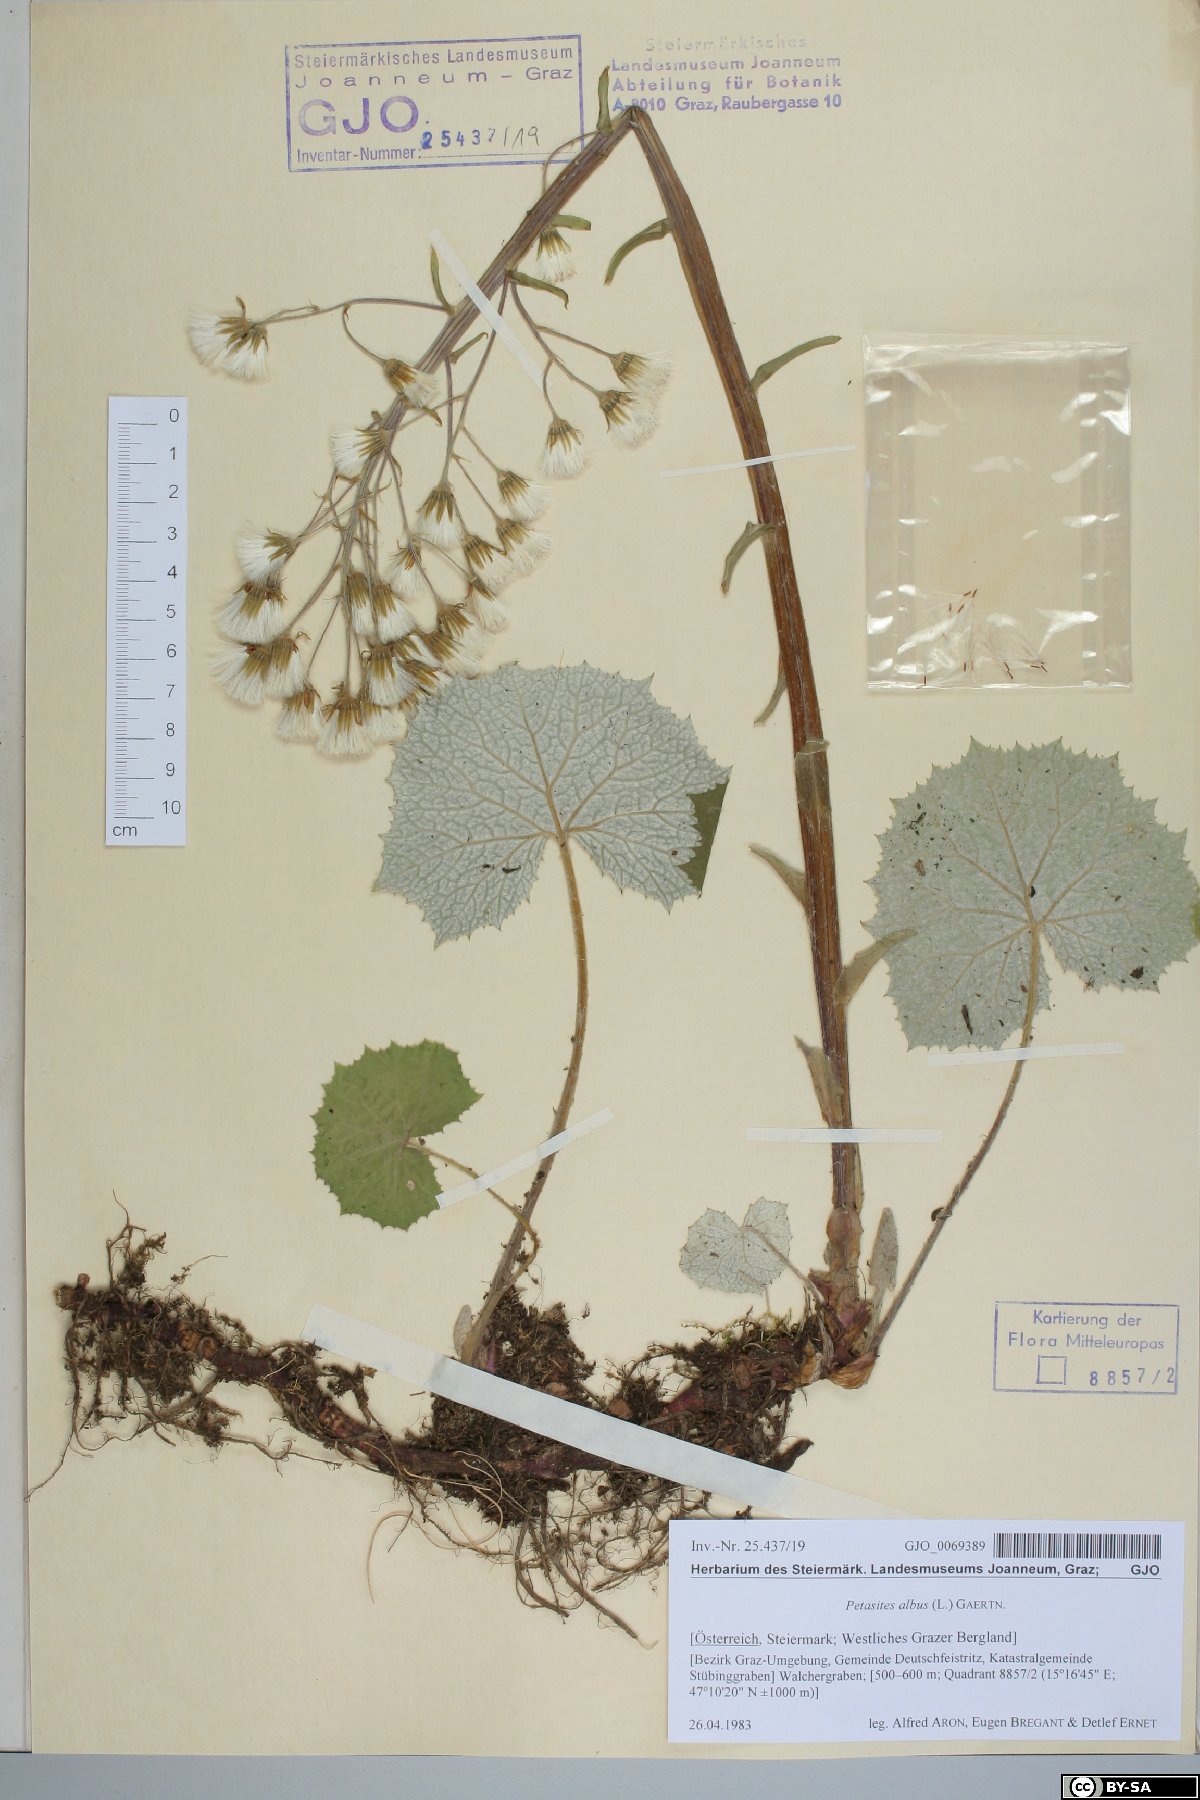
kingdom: Plantae
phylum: Tracheophyta
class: Magnoliopsida
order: Asterales
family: Asteraceae
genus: Petasites
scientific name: Petasites albus
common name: White butterbur
